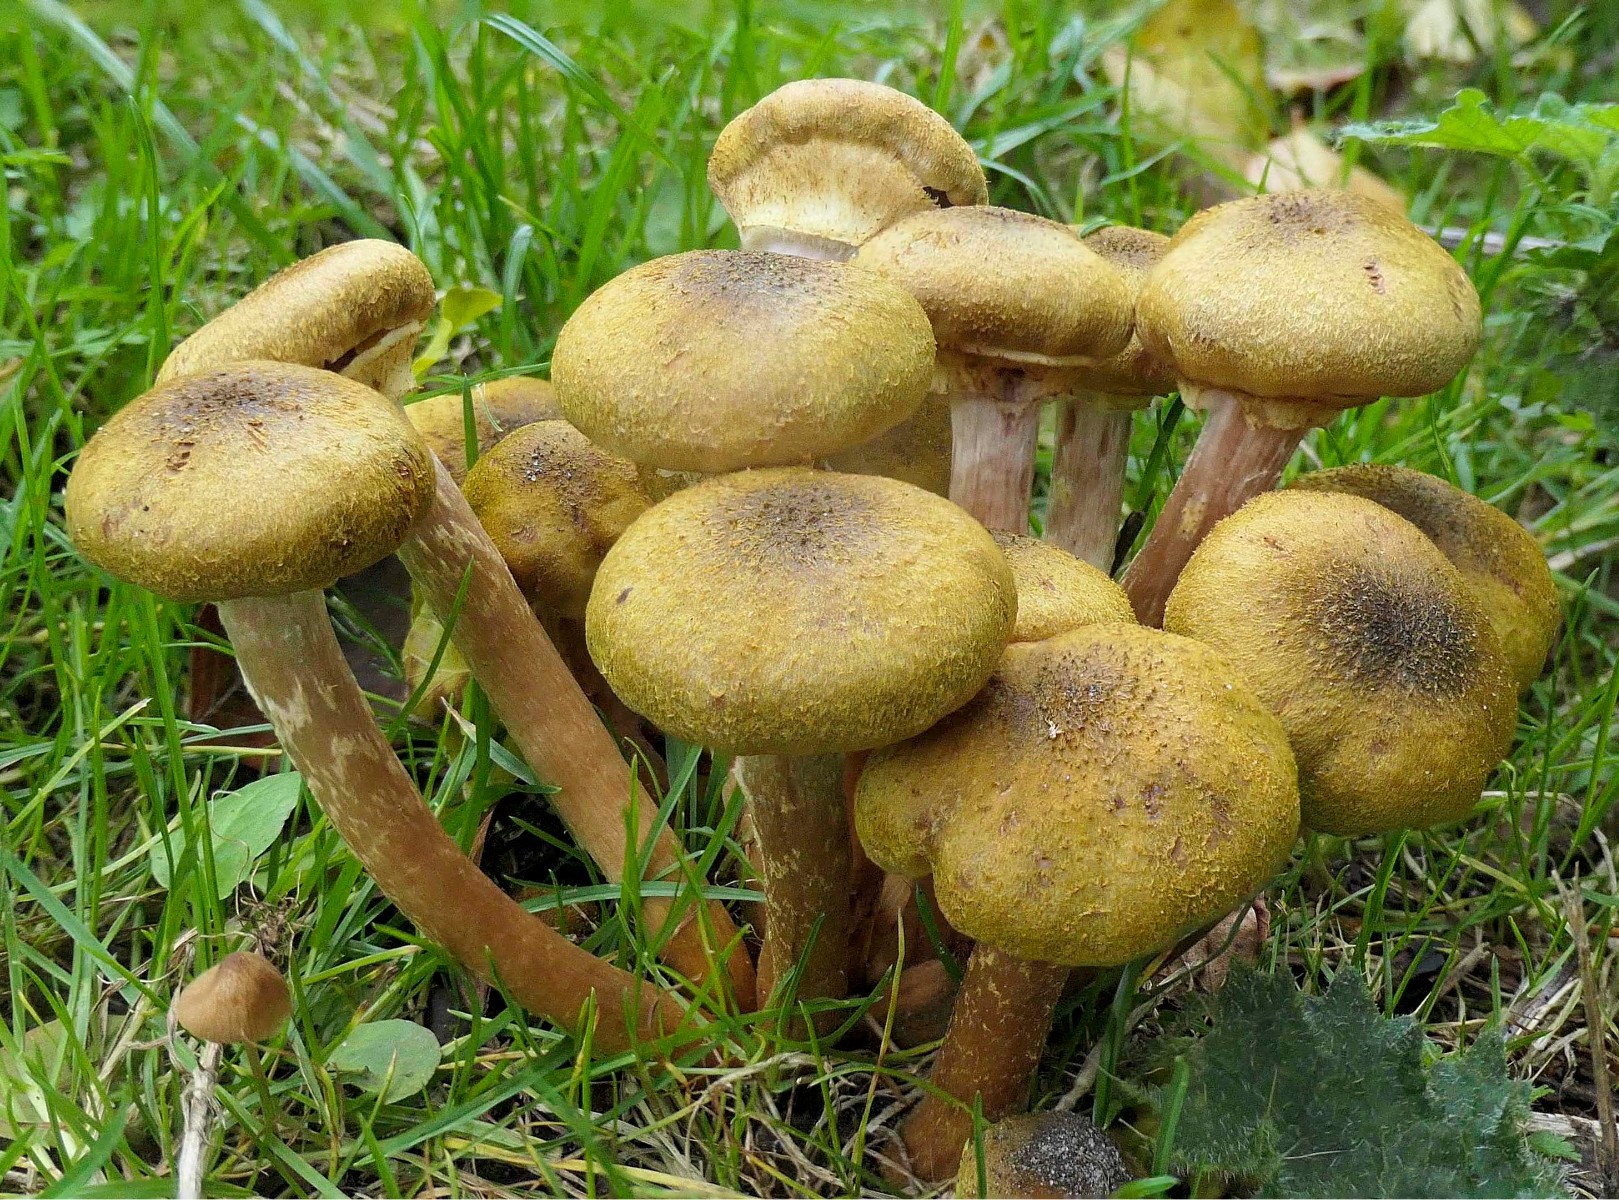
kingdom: Fungi
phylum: Basidiomycota
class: Agaricomycetes
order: Agaricales
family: Physalacriaceae
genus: Armillaria
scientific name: Armillaria mellea
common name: ægte honningsvamp
